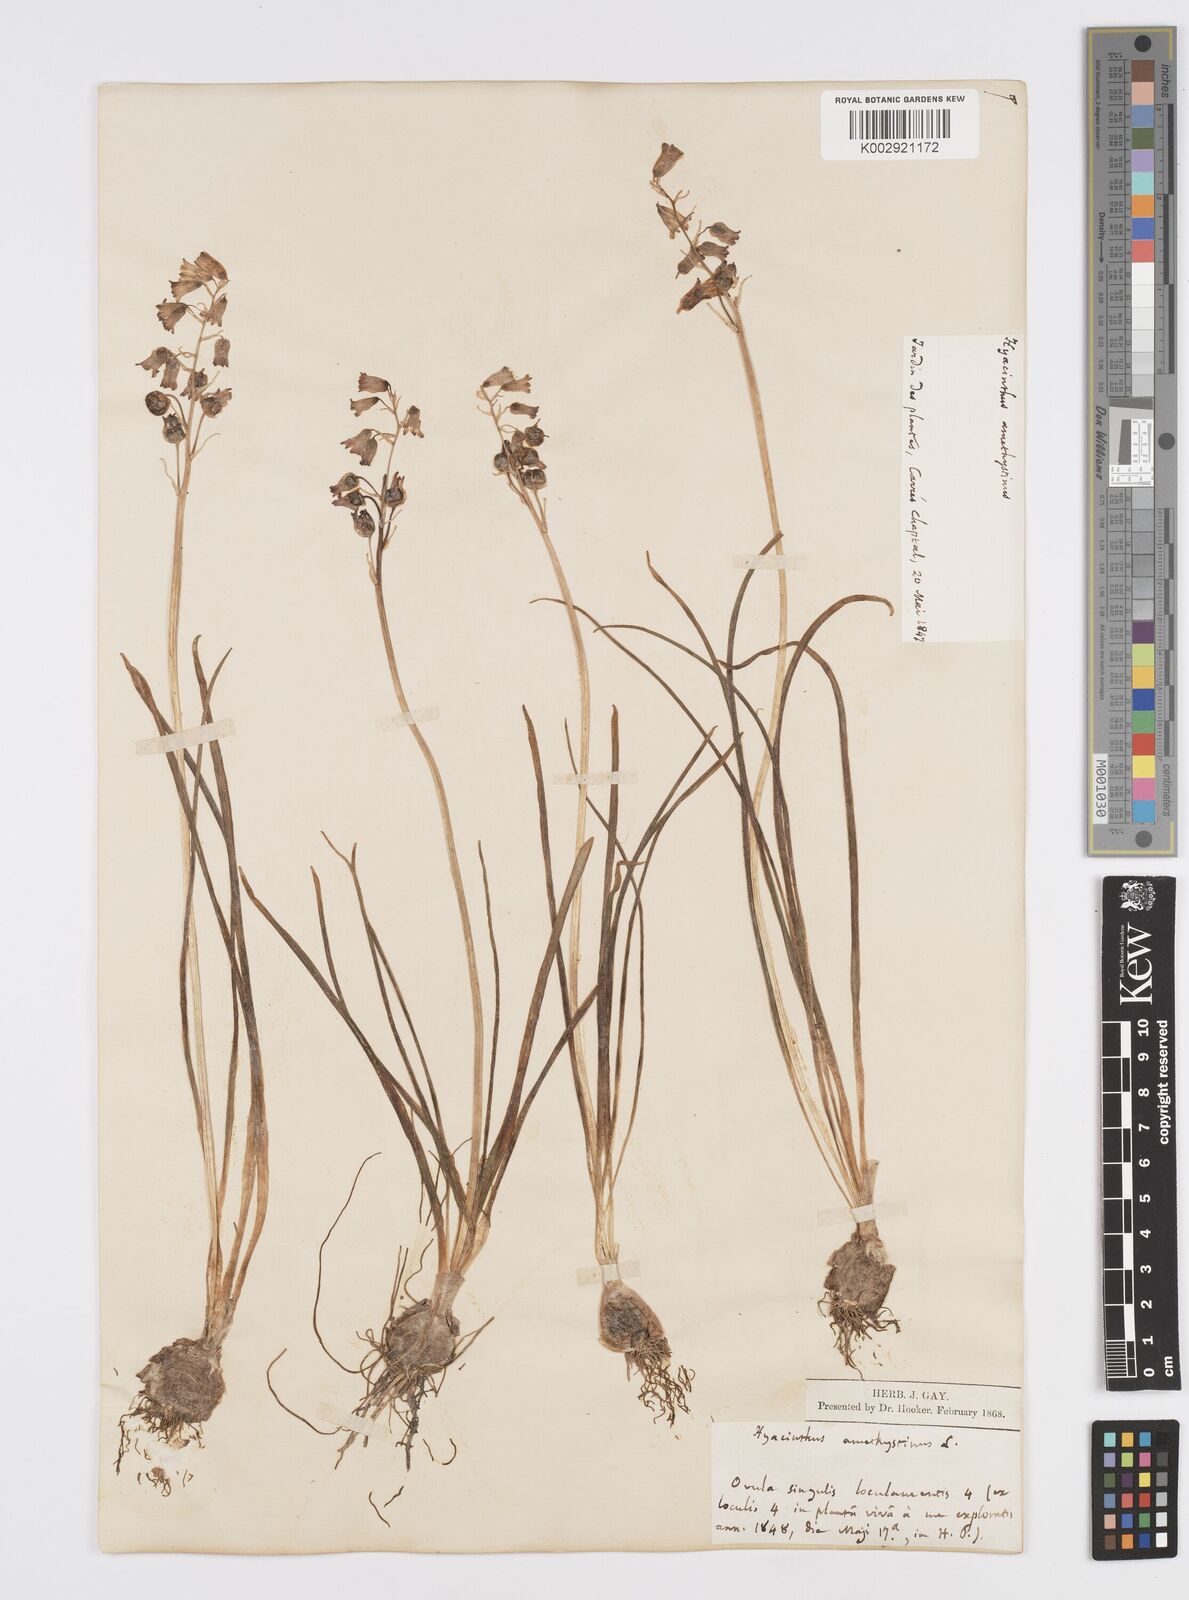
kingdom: Plantae
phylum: Tracheophyta
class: Liliopsida
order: Asparagales
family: Asparagaceae
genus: Brimeura
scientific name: Brimeura
